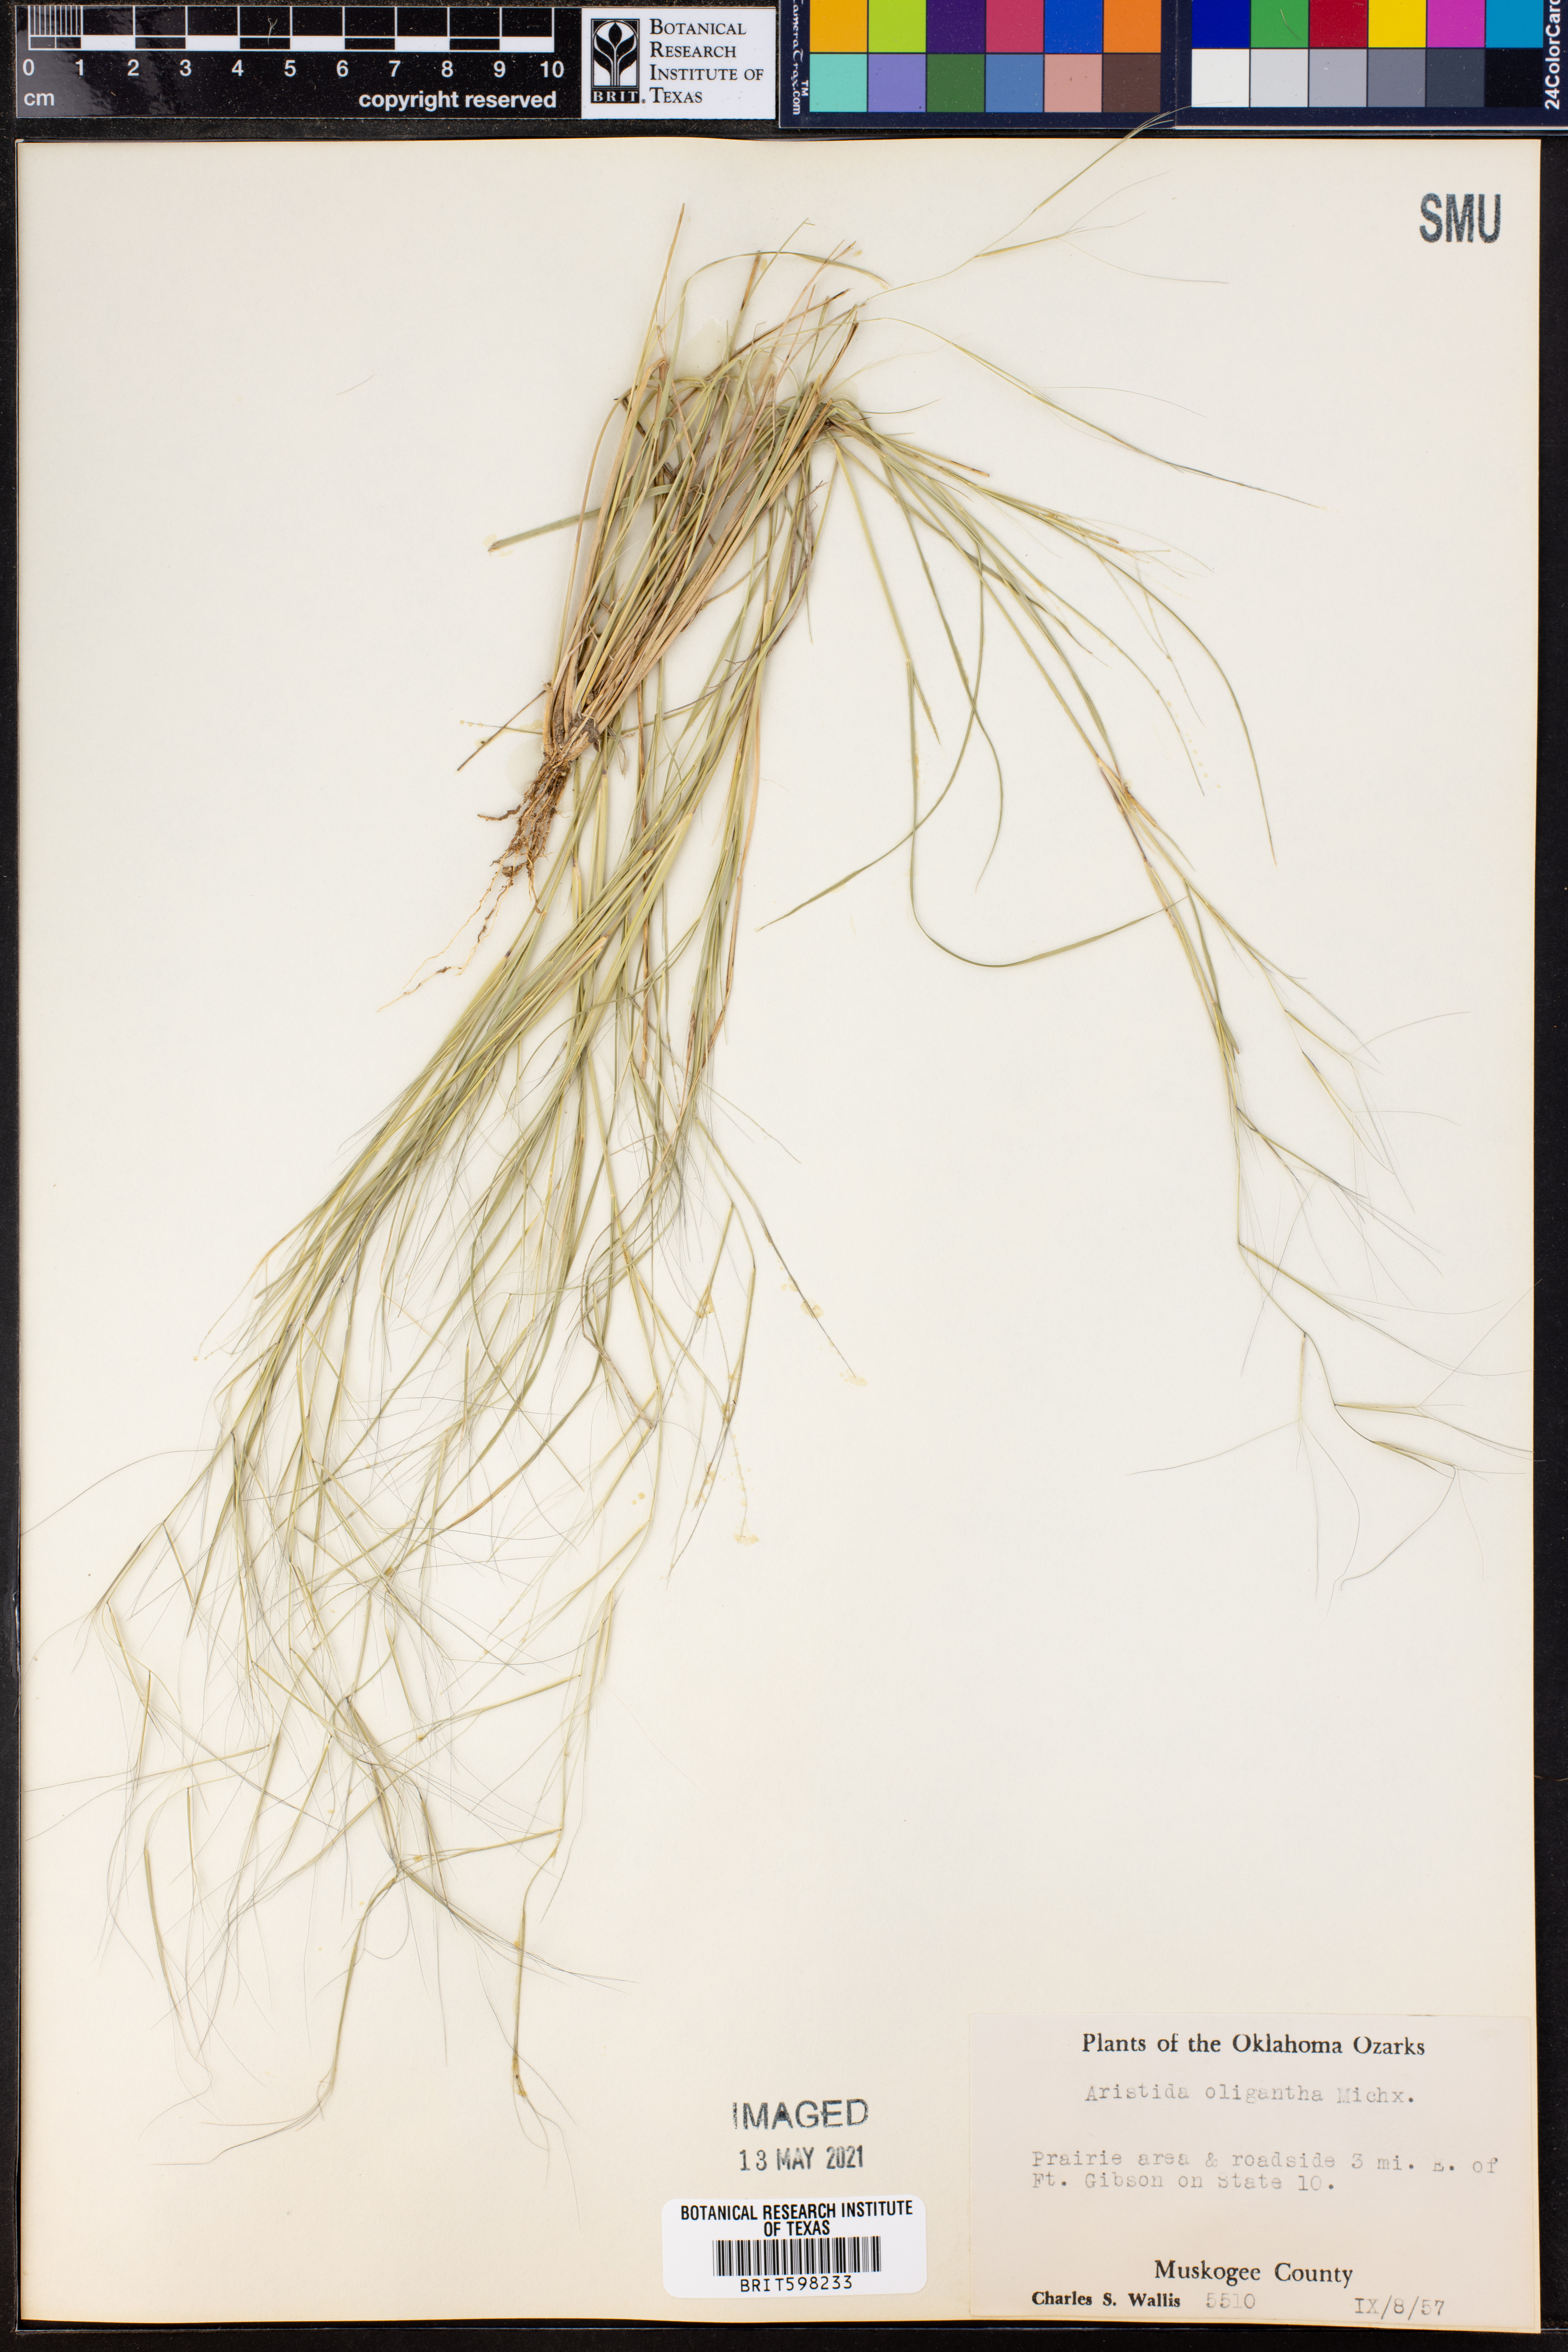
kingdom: Plantae
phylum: Tracheophyta
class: Liliopsida
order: Poales
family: Poaceae
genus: Aristida
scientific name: Aristida oligantha
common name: Few-flowered aristida
